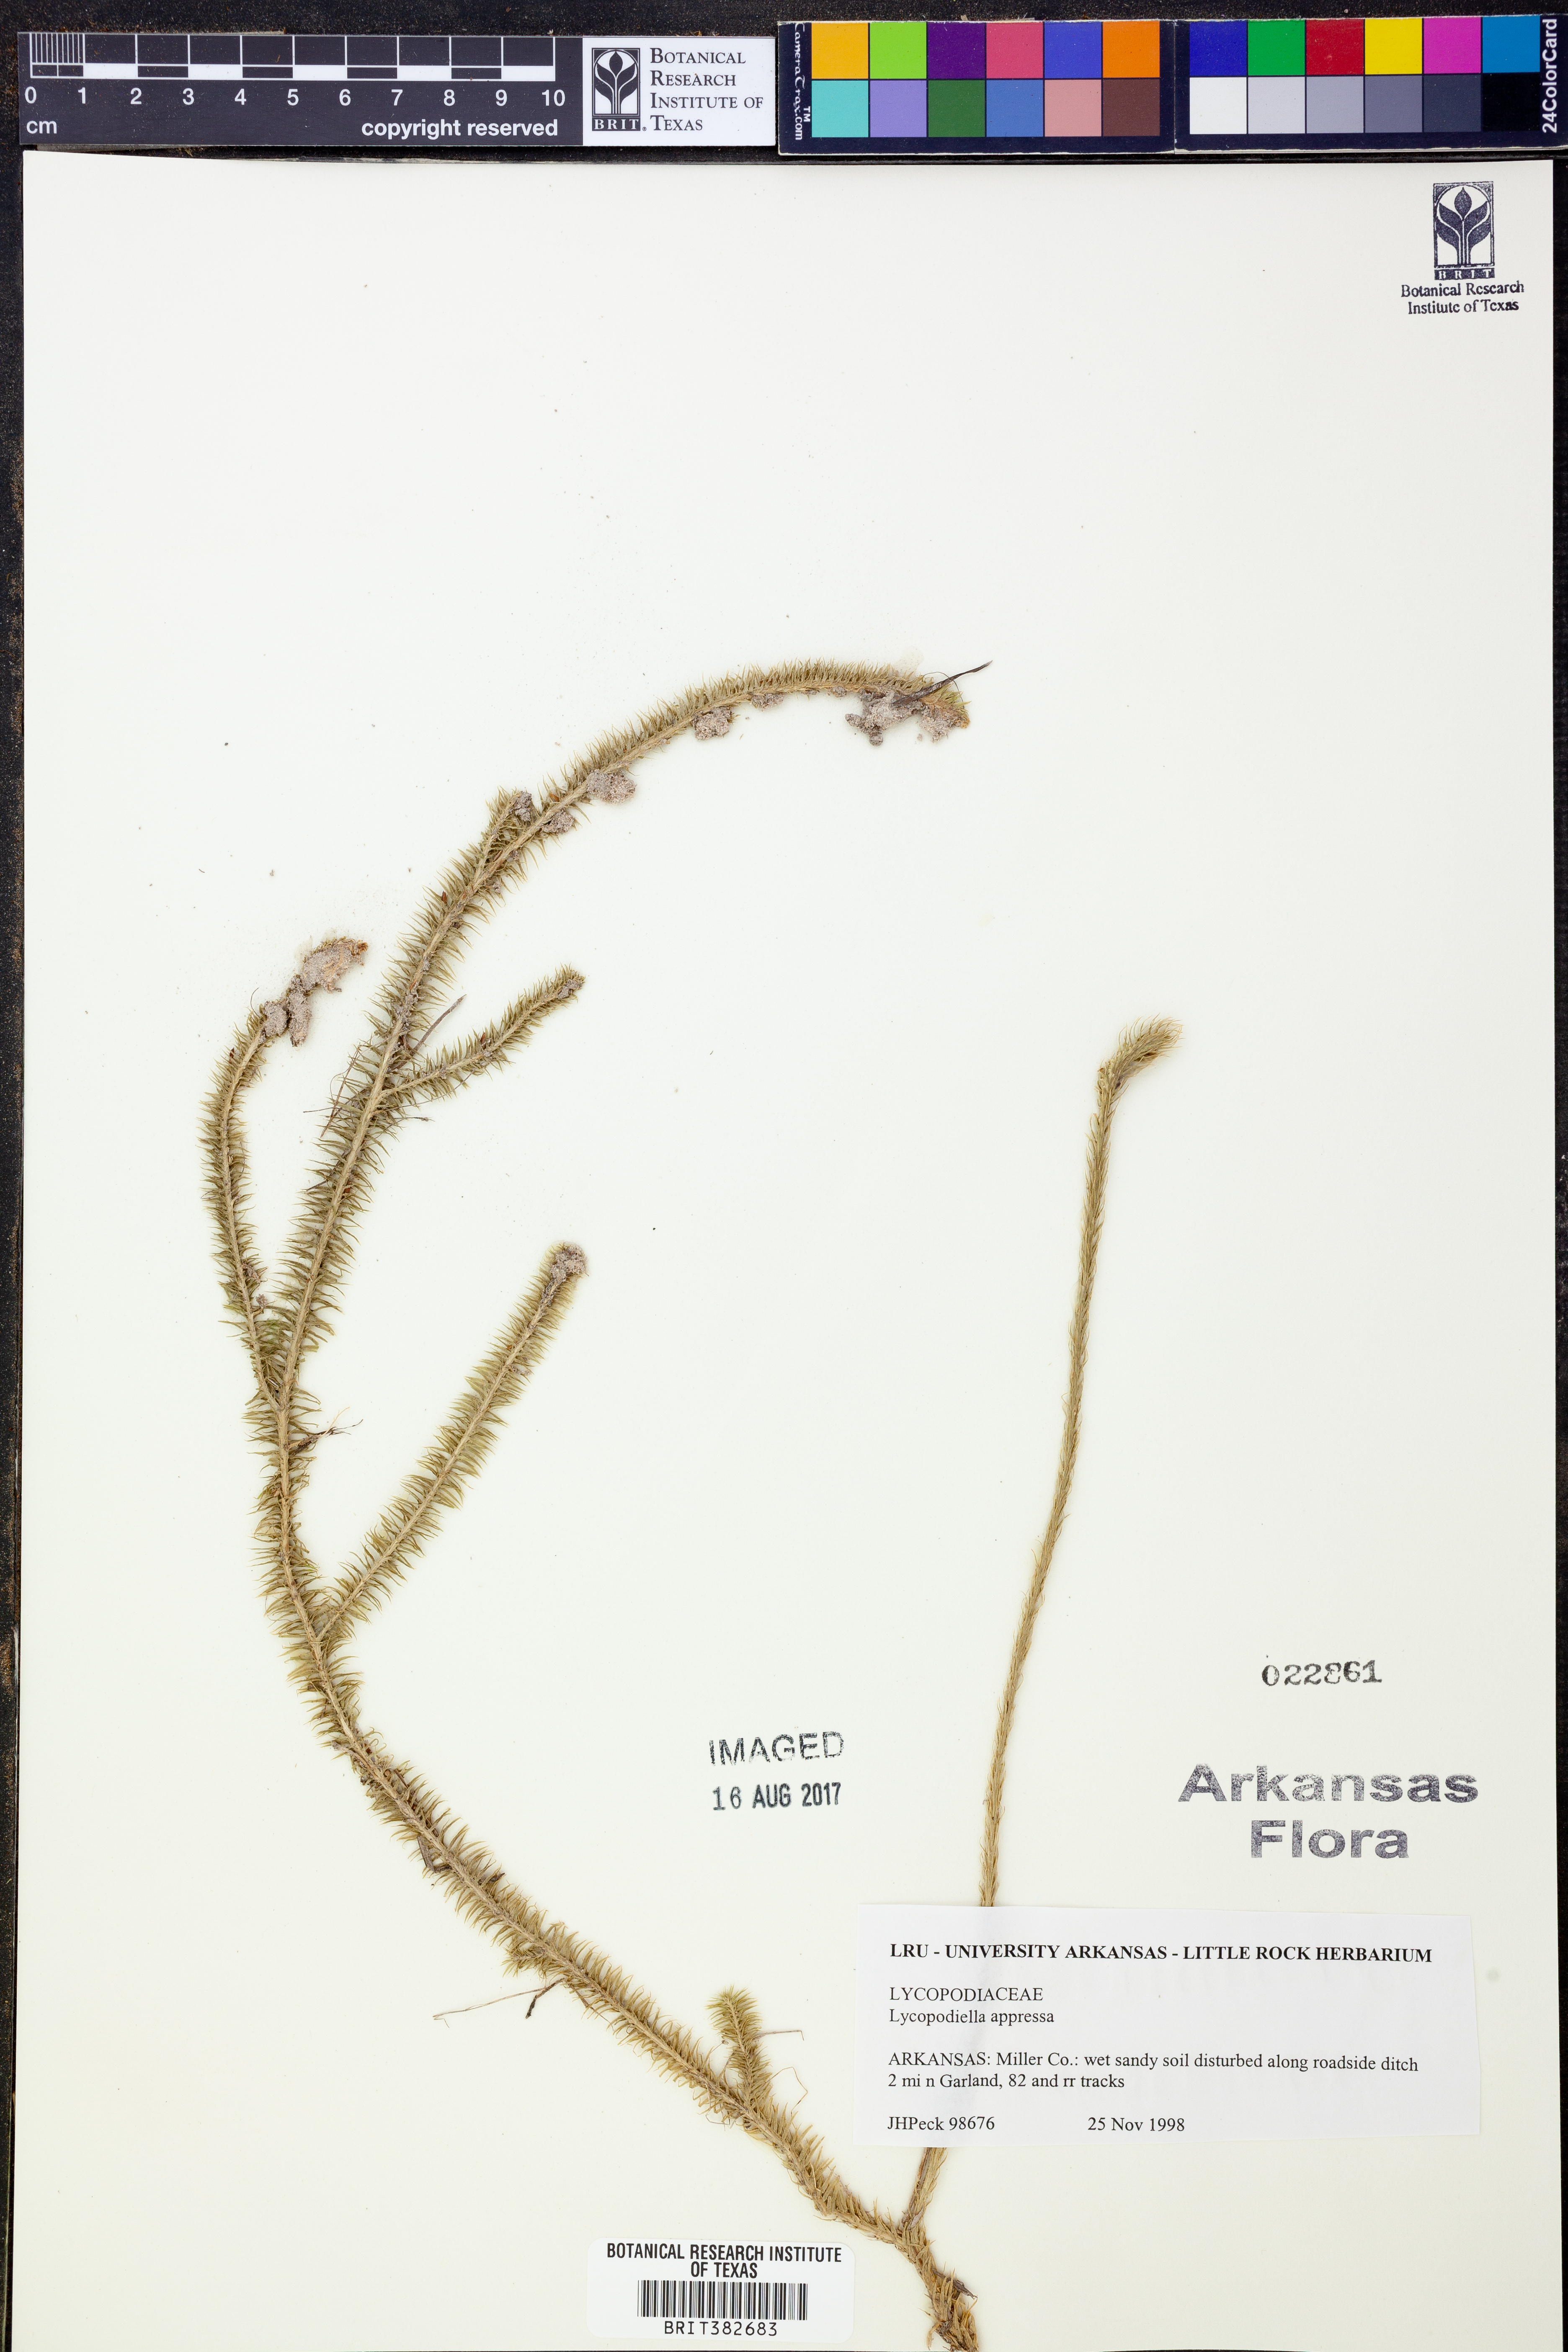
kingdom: Plantae
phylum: Tracheophyta
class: Lycopodiopsida
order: Lycopodiales
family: Lycopodiaceae
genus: Lycopodiella
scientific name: Lycopodiella appressa
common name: Appressed bog clubmoss
